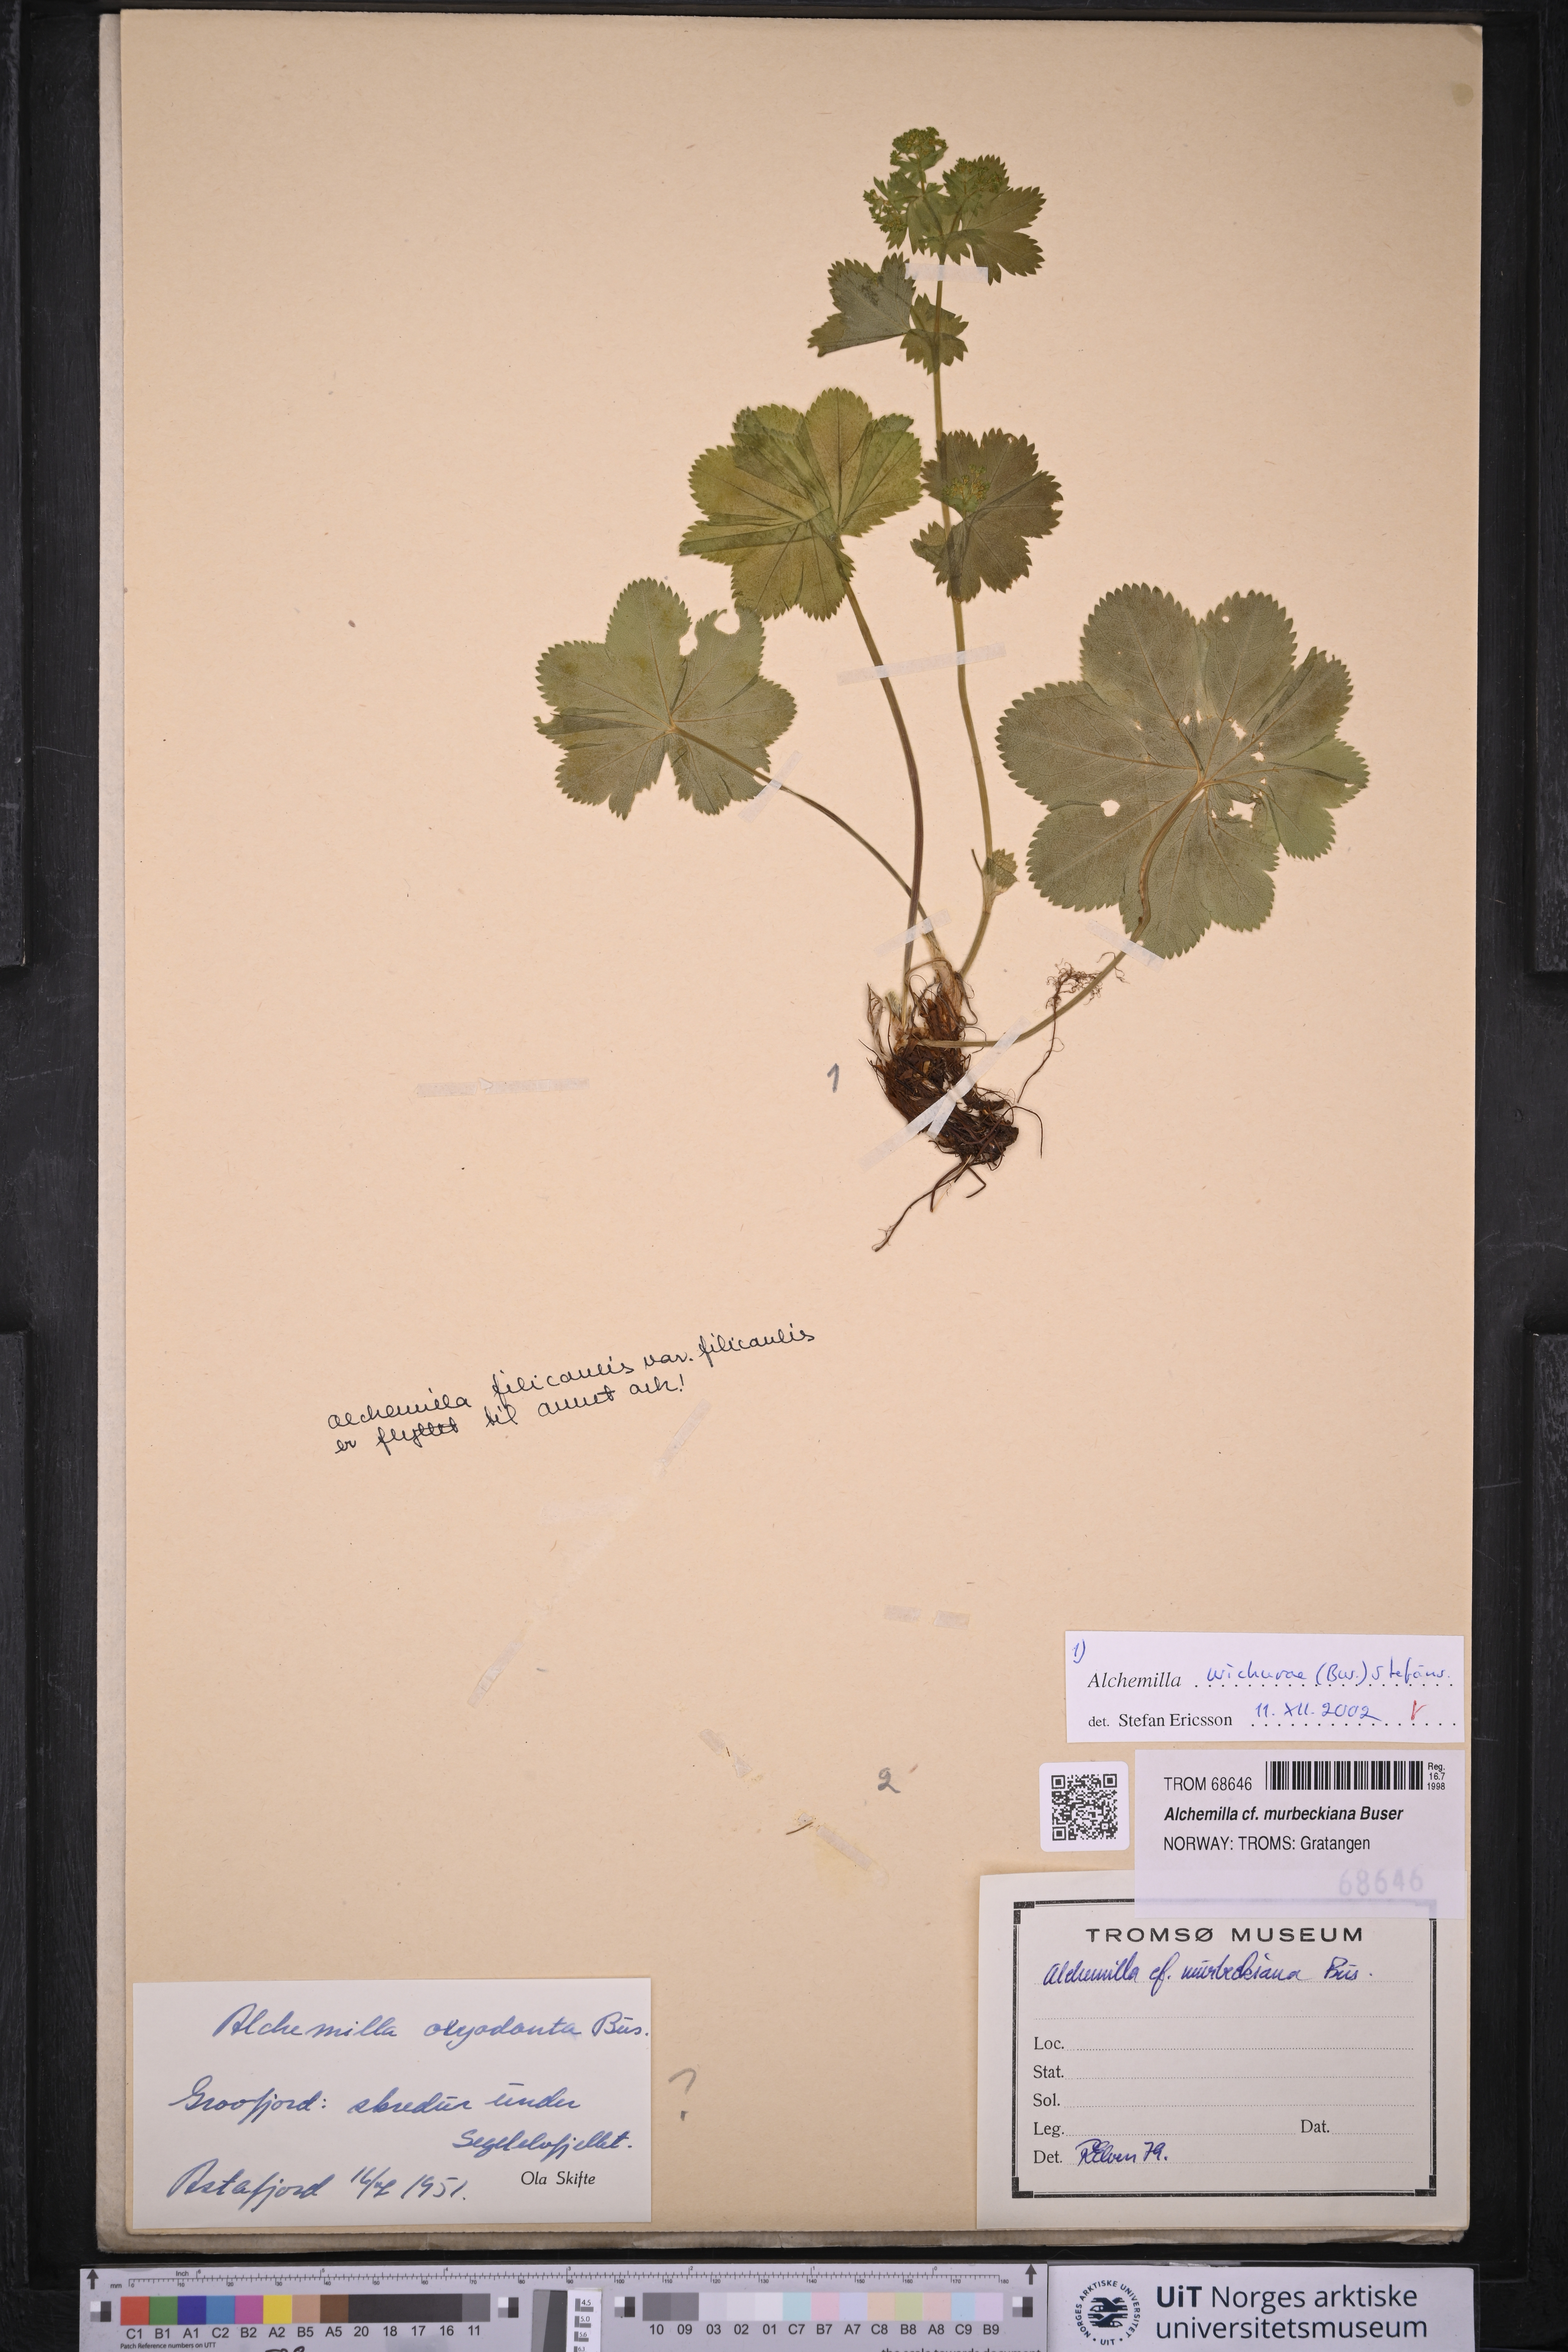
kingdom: Plantae
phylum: Tracheophyta
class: Magnoliopsida
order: Rosales
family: Rosaceae
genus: Alchemilla
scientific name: Alchemilla wichurae
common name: Rock lady's mantle
